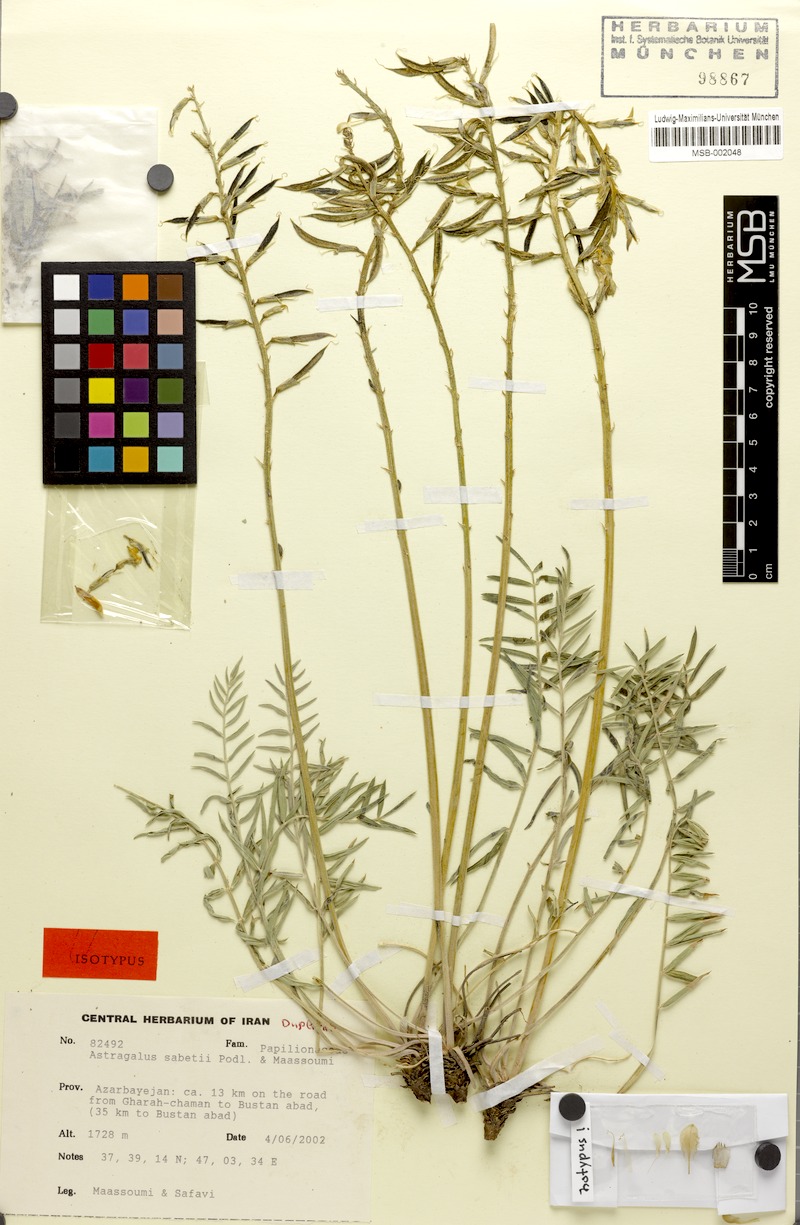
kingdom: Plantae
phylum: Tracheophyta
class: Magnoliopsida
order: Fabales
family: Fabaceae
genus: Astragalus
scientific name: Astragalus sabetii
